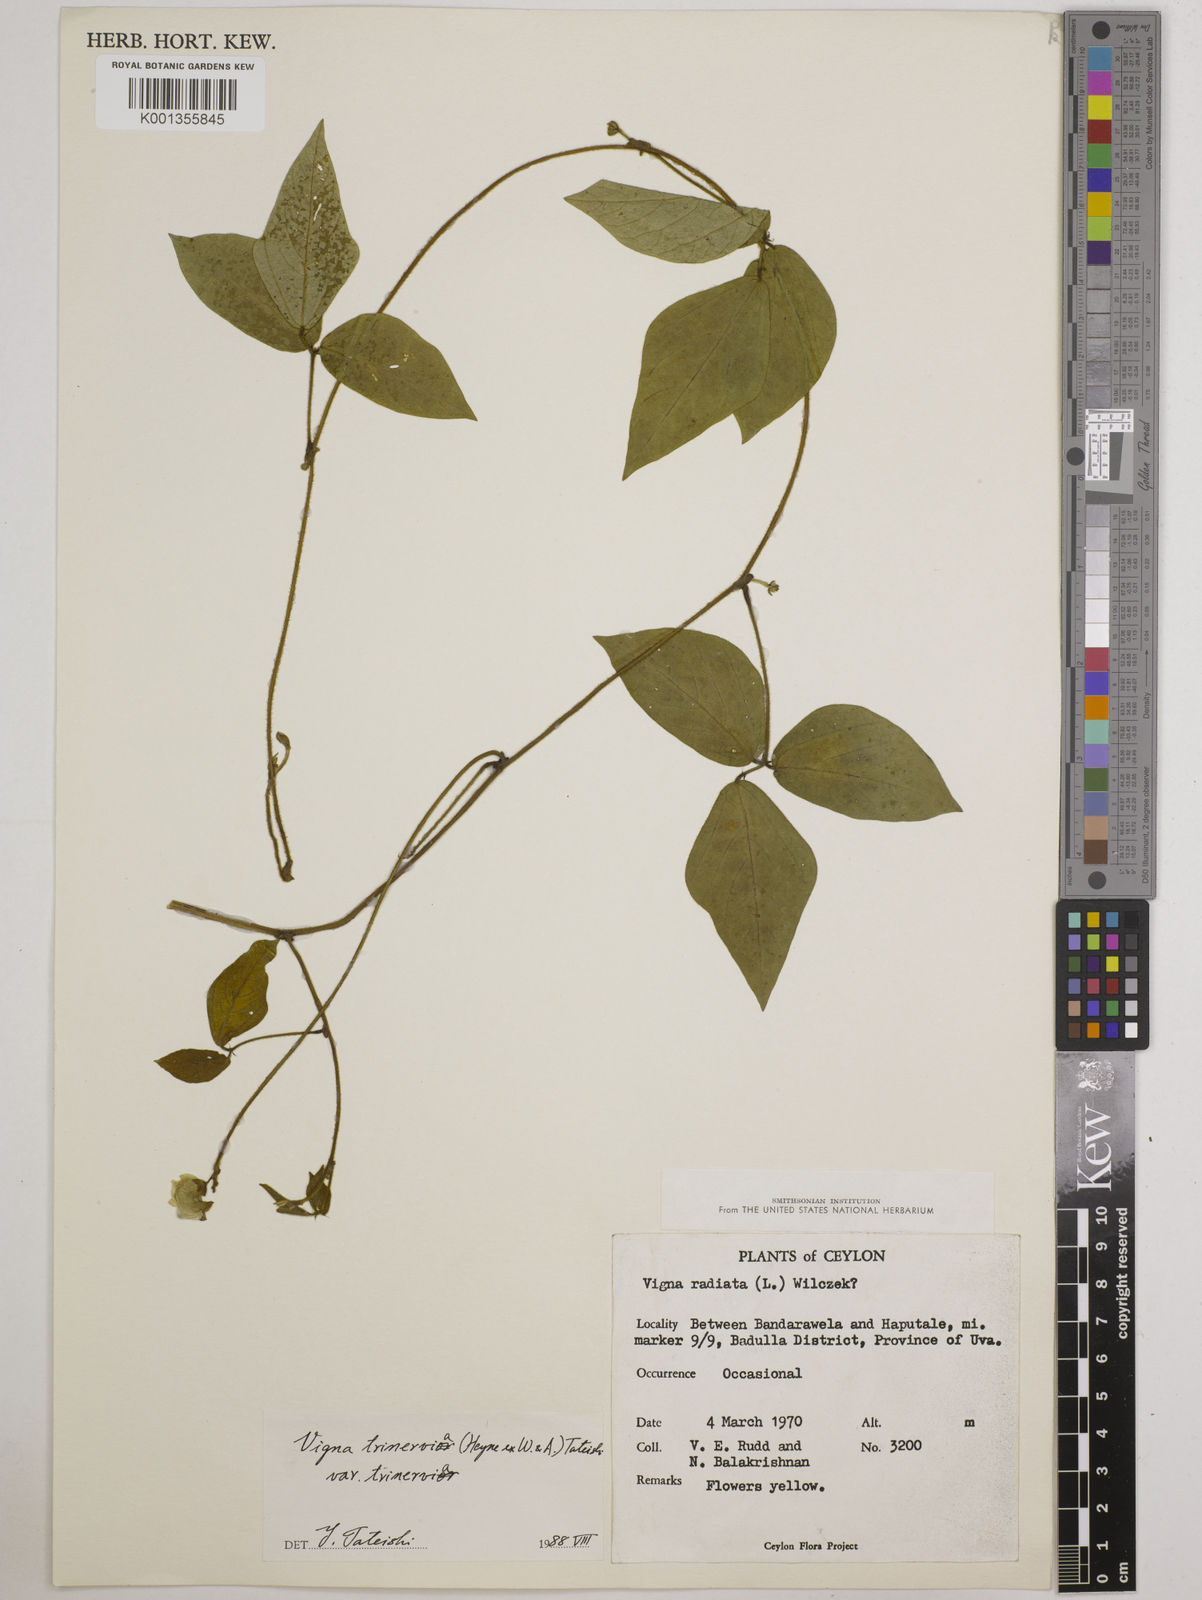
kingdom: Plantae
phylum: Tracheophyta
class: Magnoliopsida
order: Fabales
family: Fabaceae
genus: Vigna
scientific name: Vigna radiata
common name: Mung-bean
